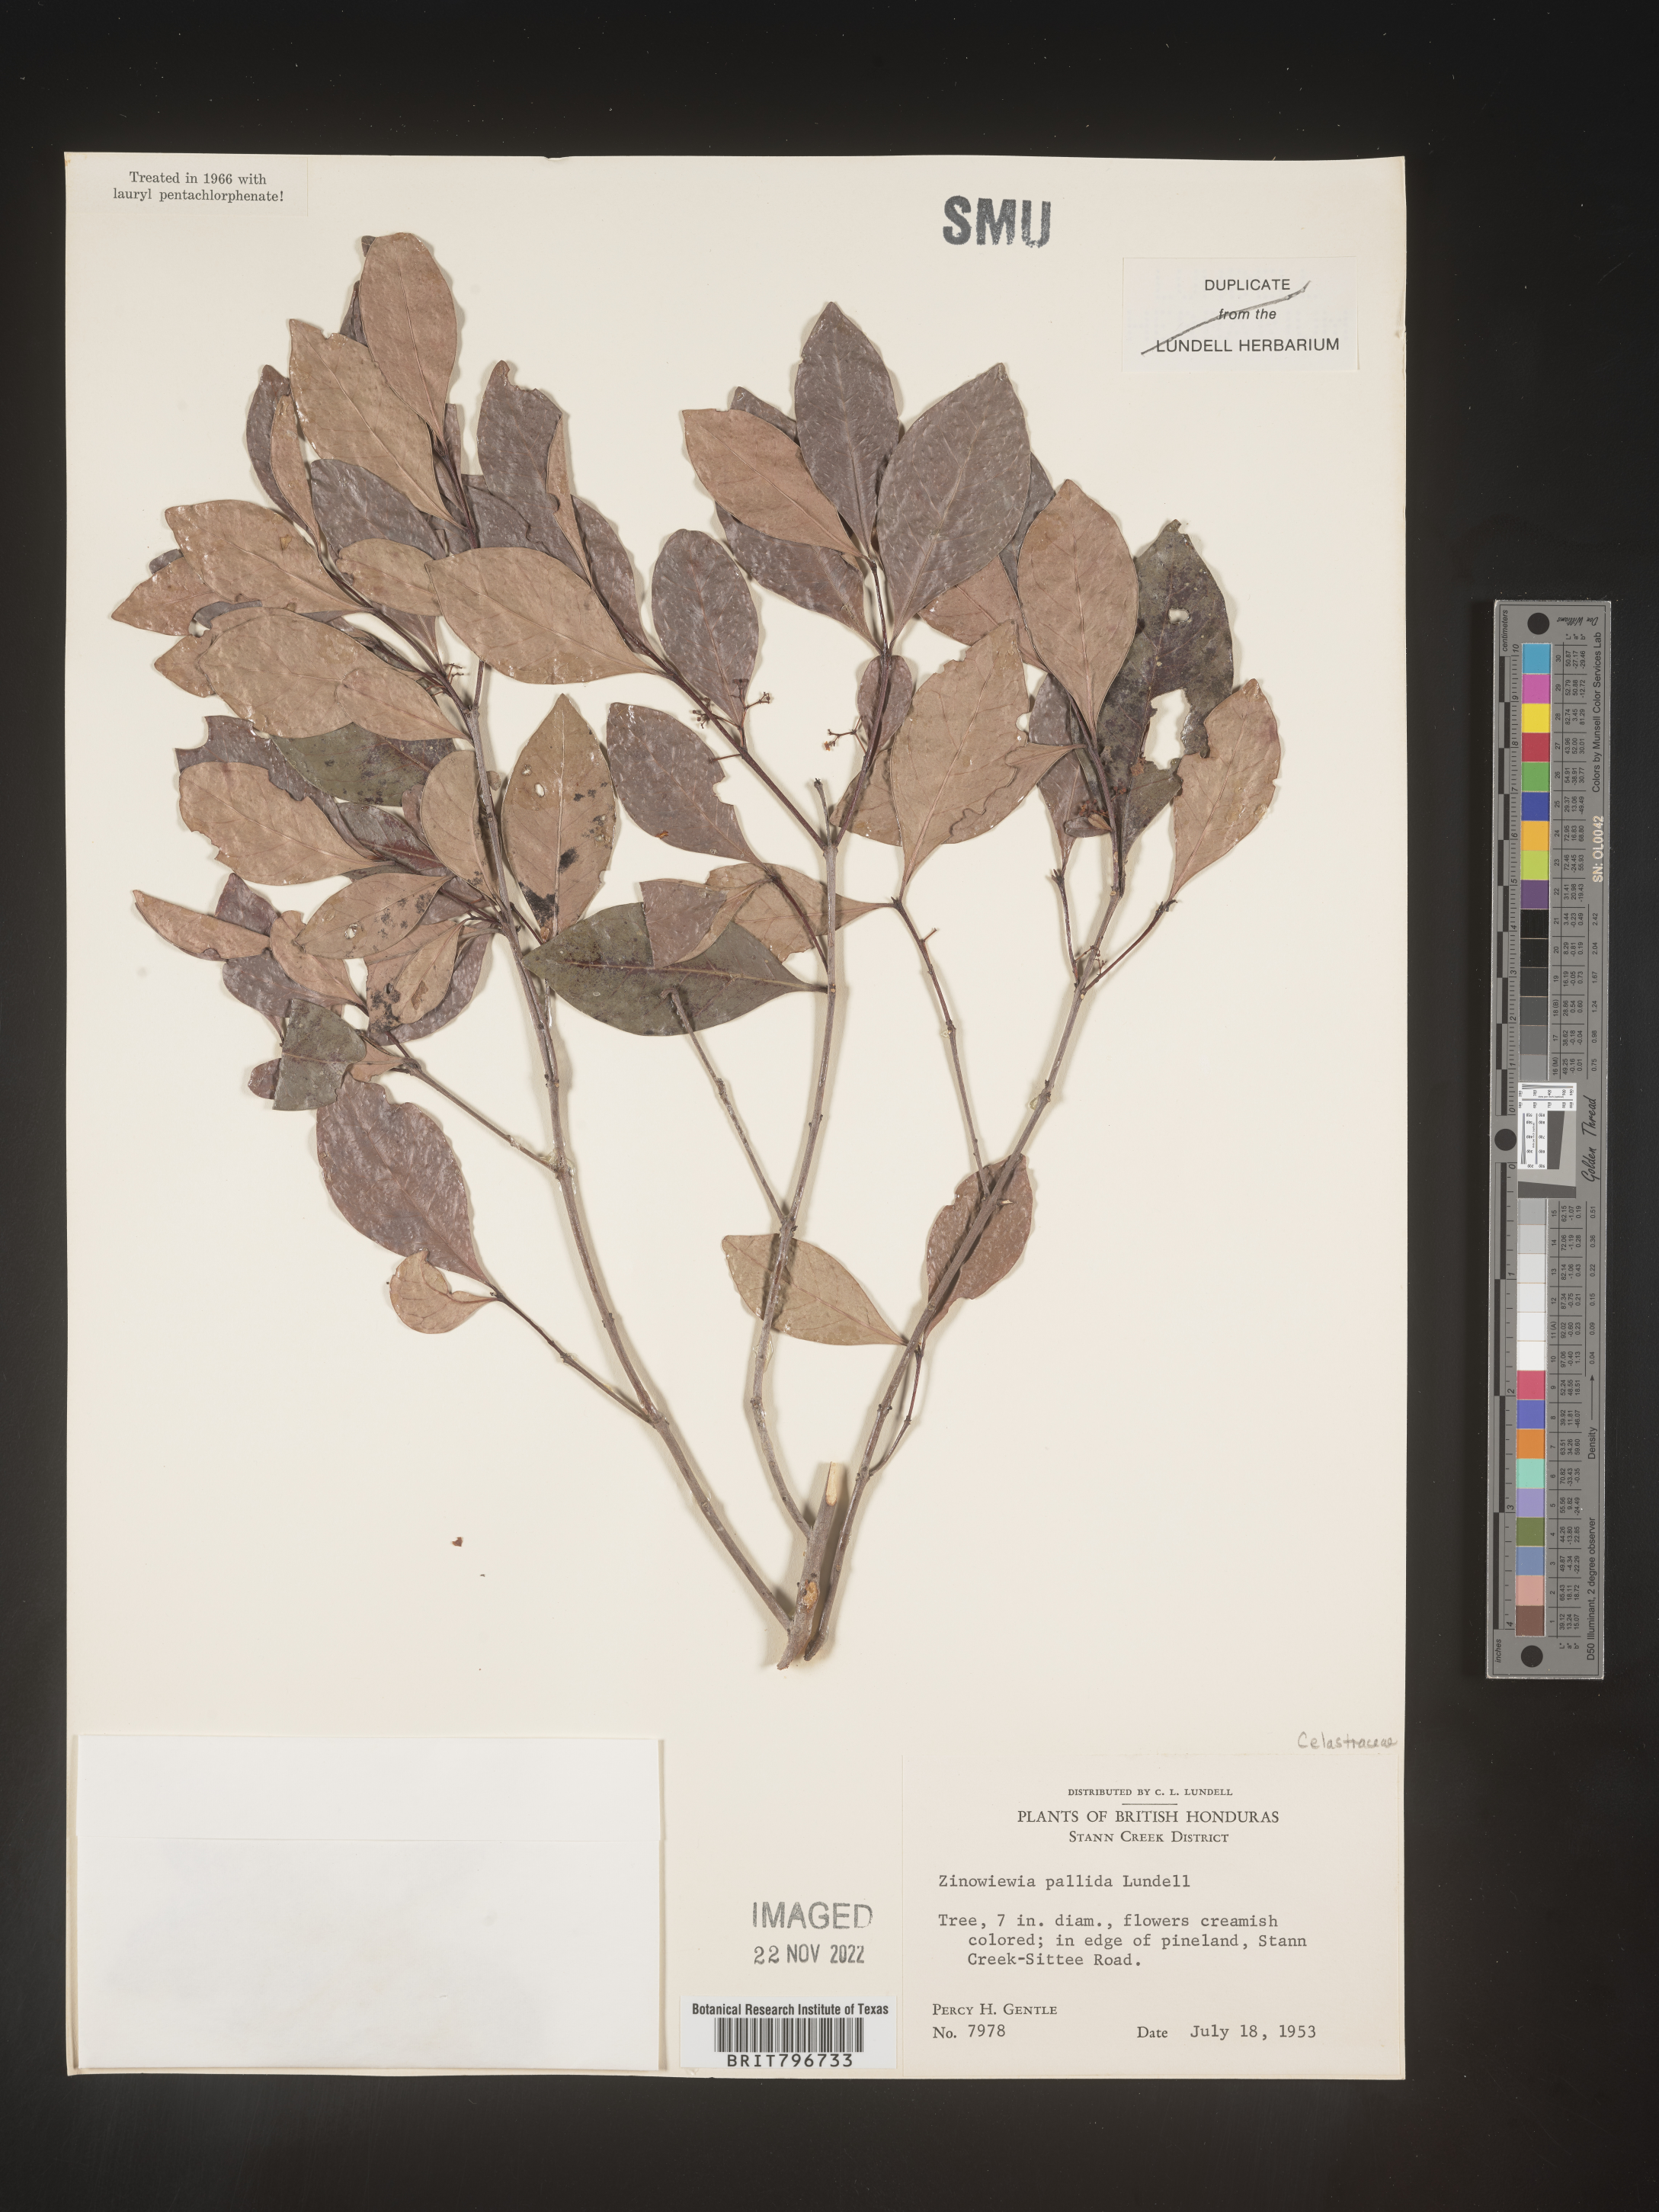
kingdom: Plantae
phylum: Tracheophyta
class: Magnoliopsida
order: Celastrales
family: Celastraceae
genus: Zinowiewia
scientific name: Zinowiewia
